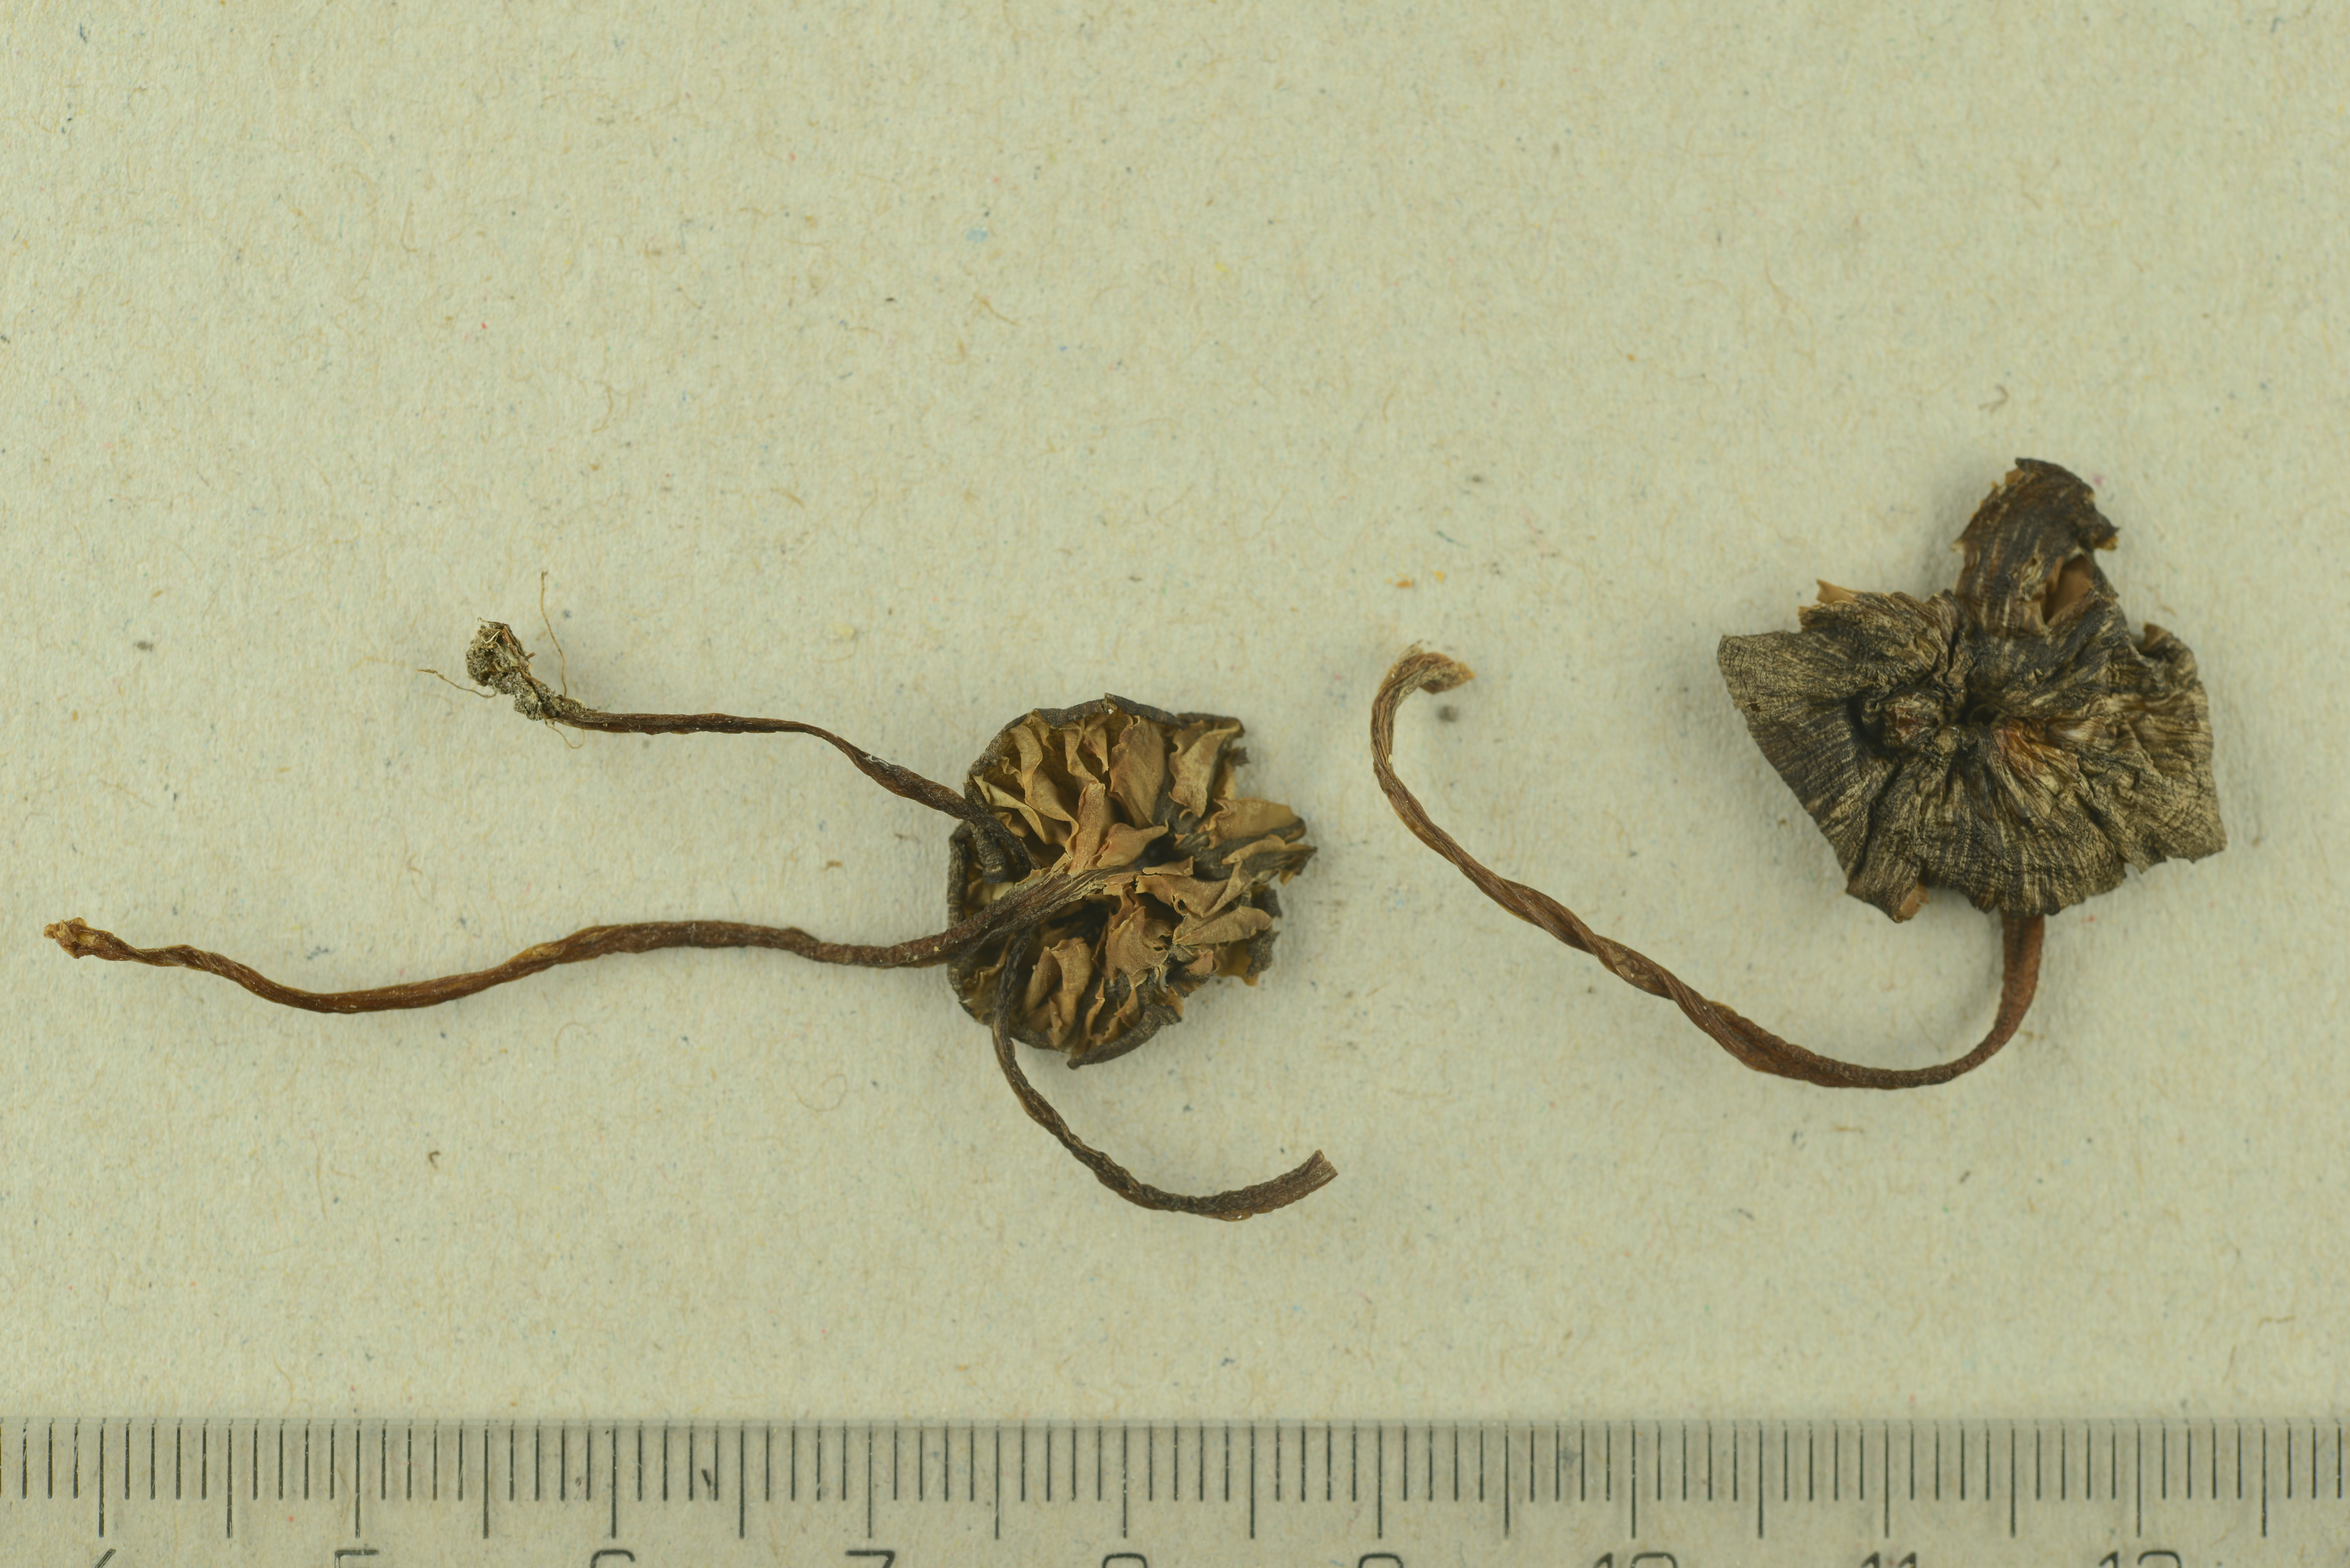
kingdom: Fungi
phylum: Basidiomycota
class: Agaricomycetes
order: Agaricales
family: Entolomataceae
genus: Entoloma
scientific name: Entoloma rhombisporum
